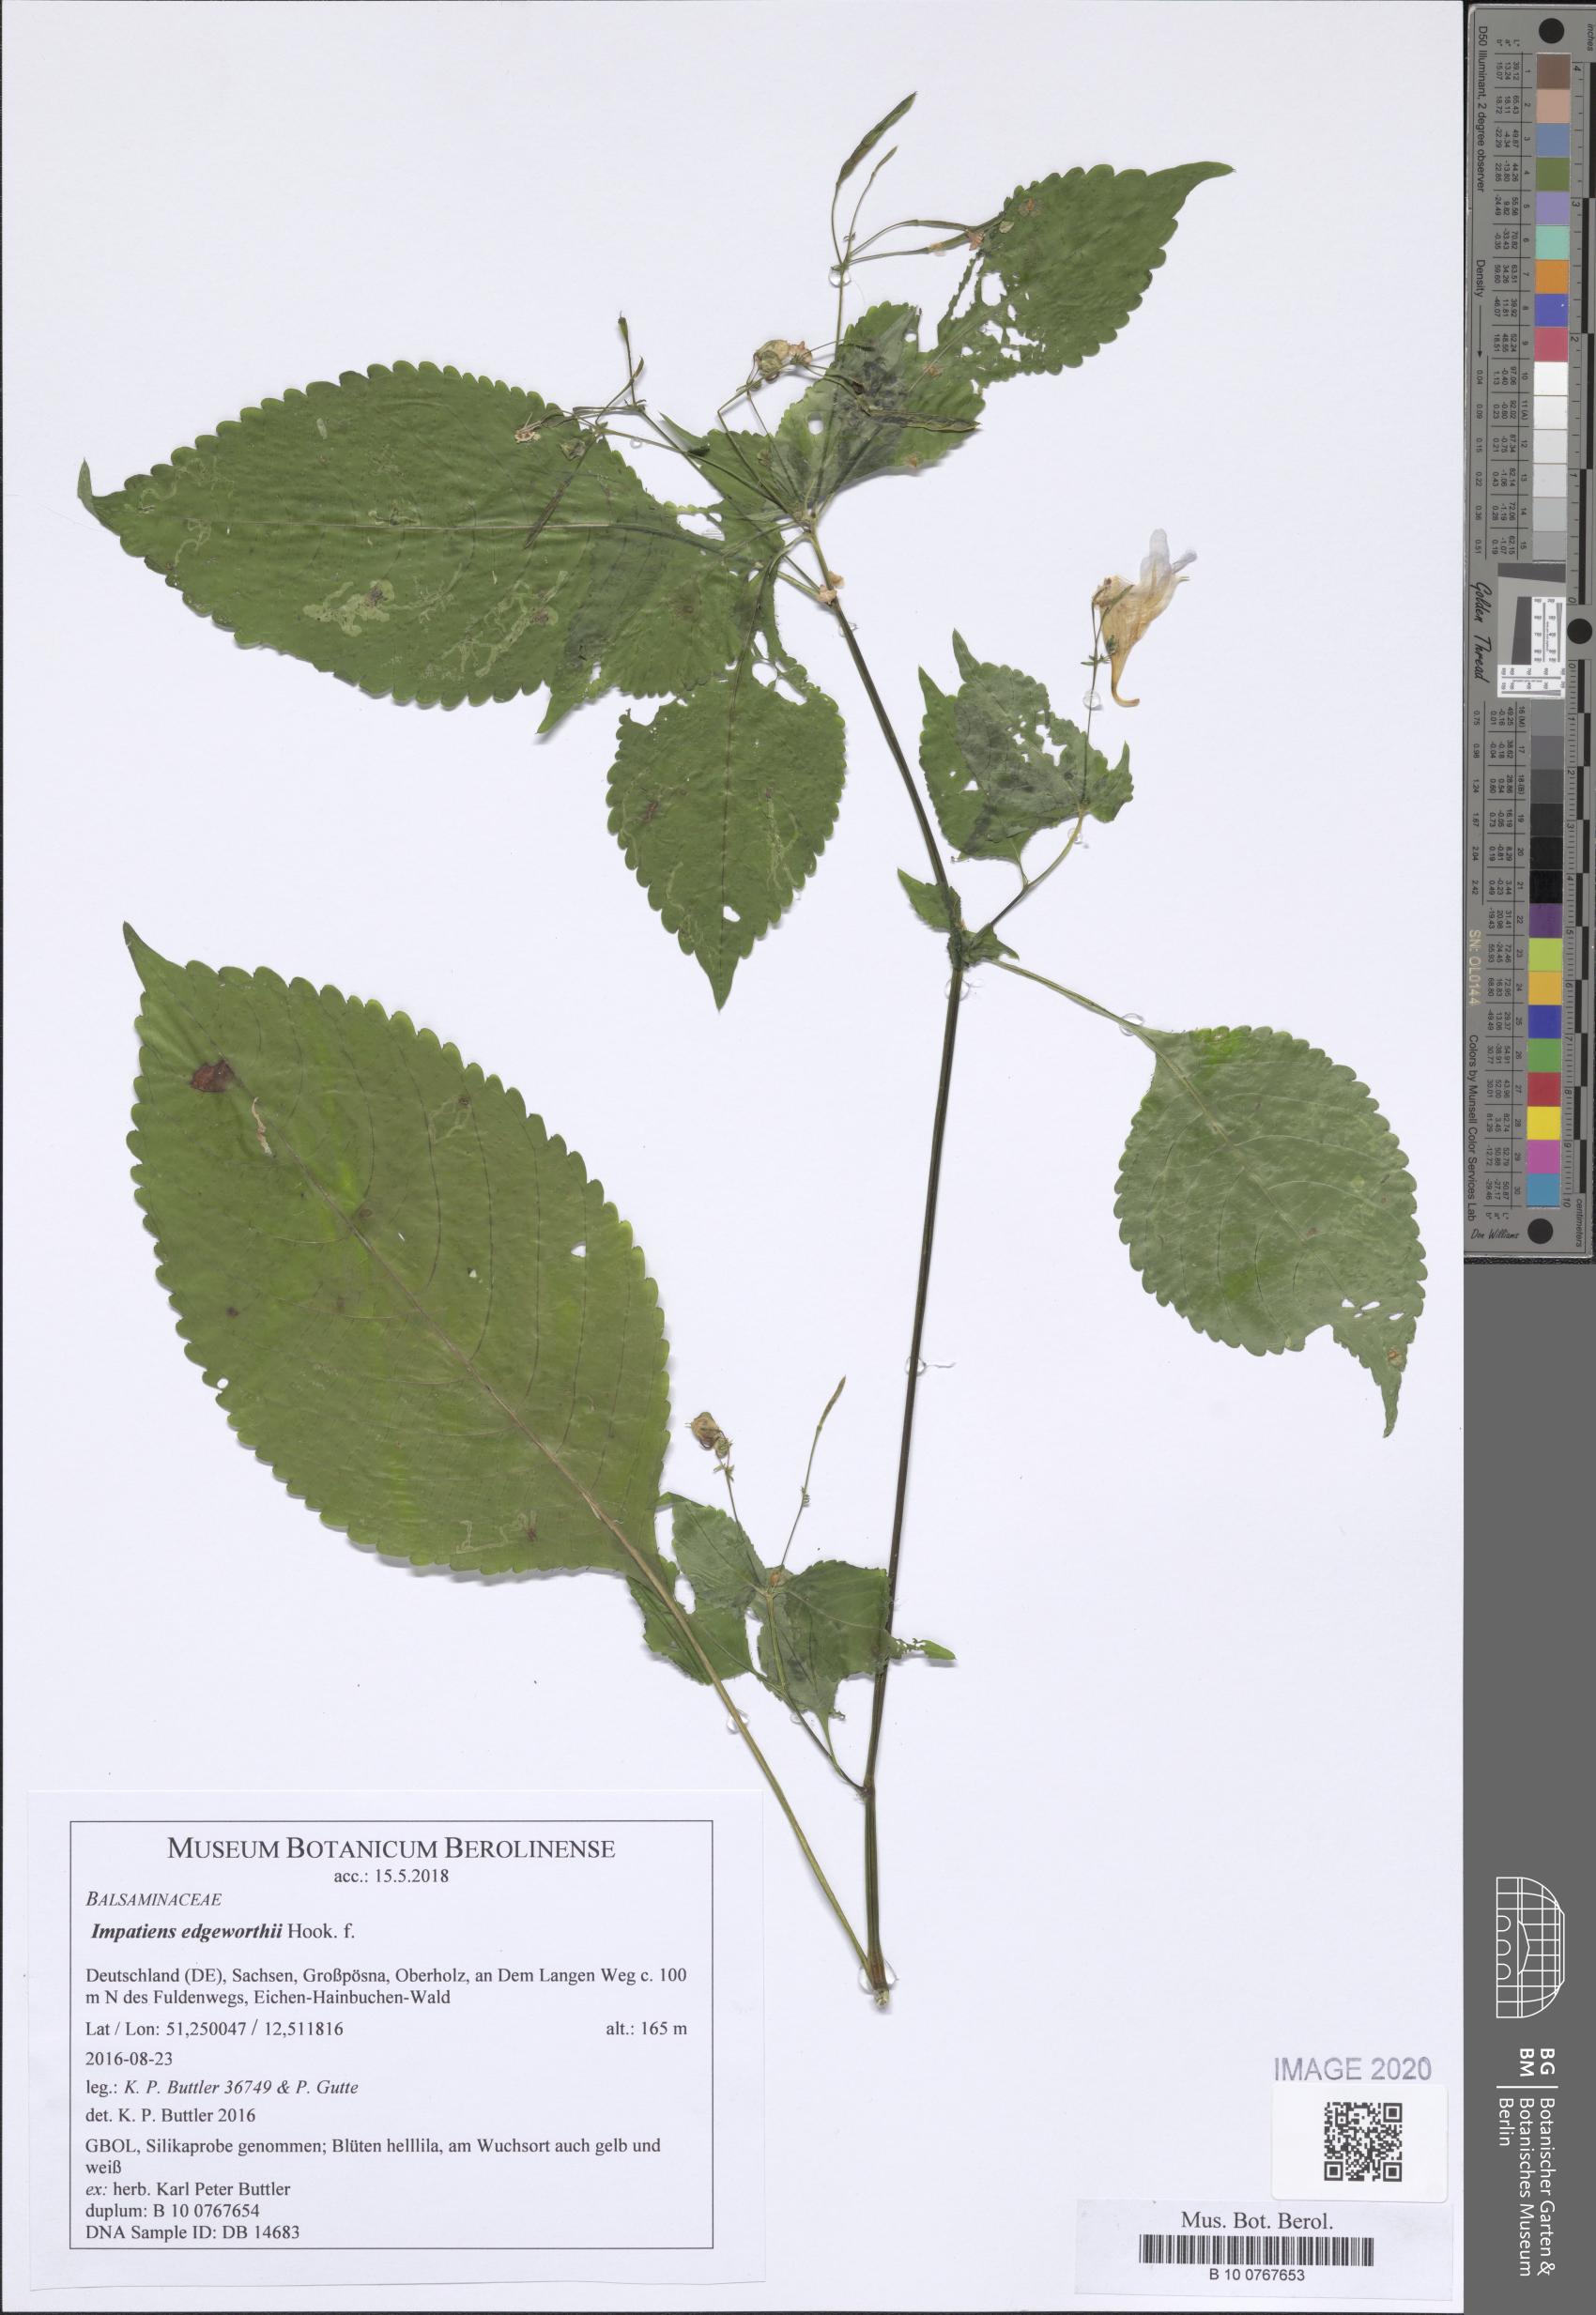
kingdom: Plantae
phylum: Tracheophyta
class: Magnoliopsida
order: Ericales
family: Balsaminaceae
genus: Impatiens
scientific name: Impatiens edgeworthii
